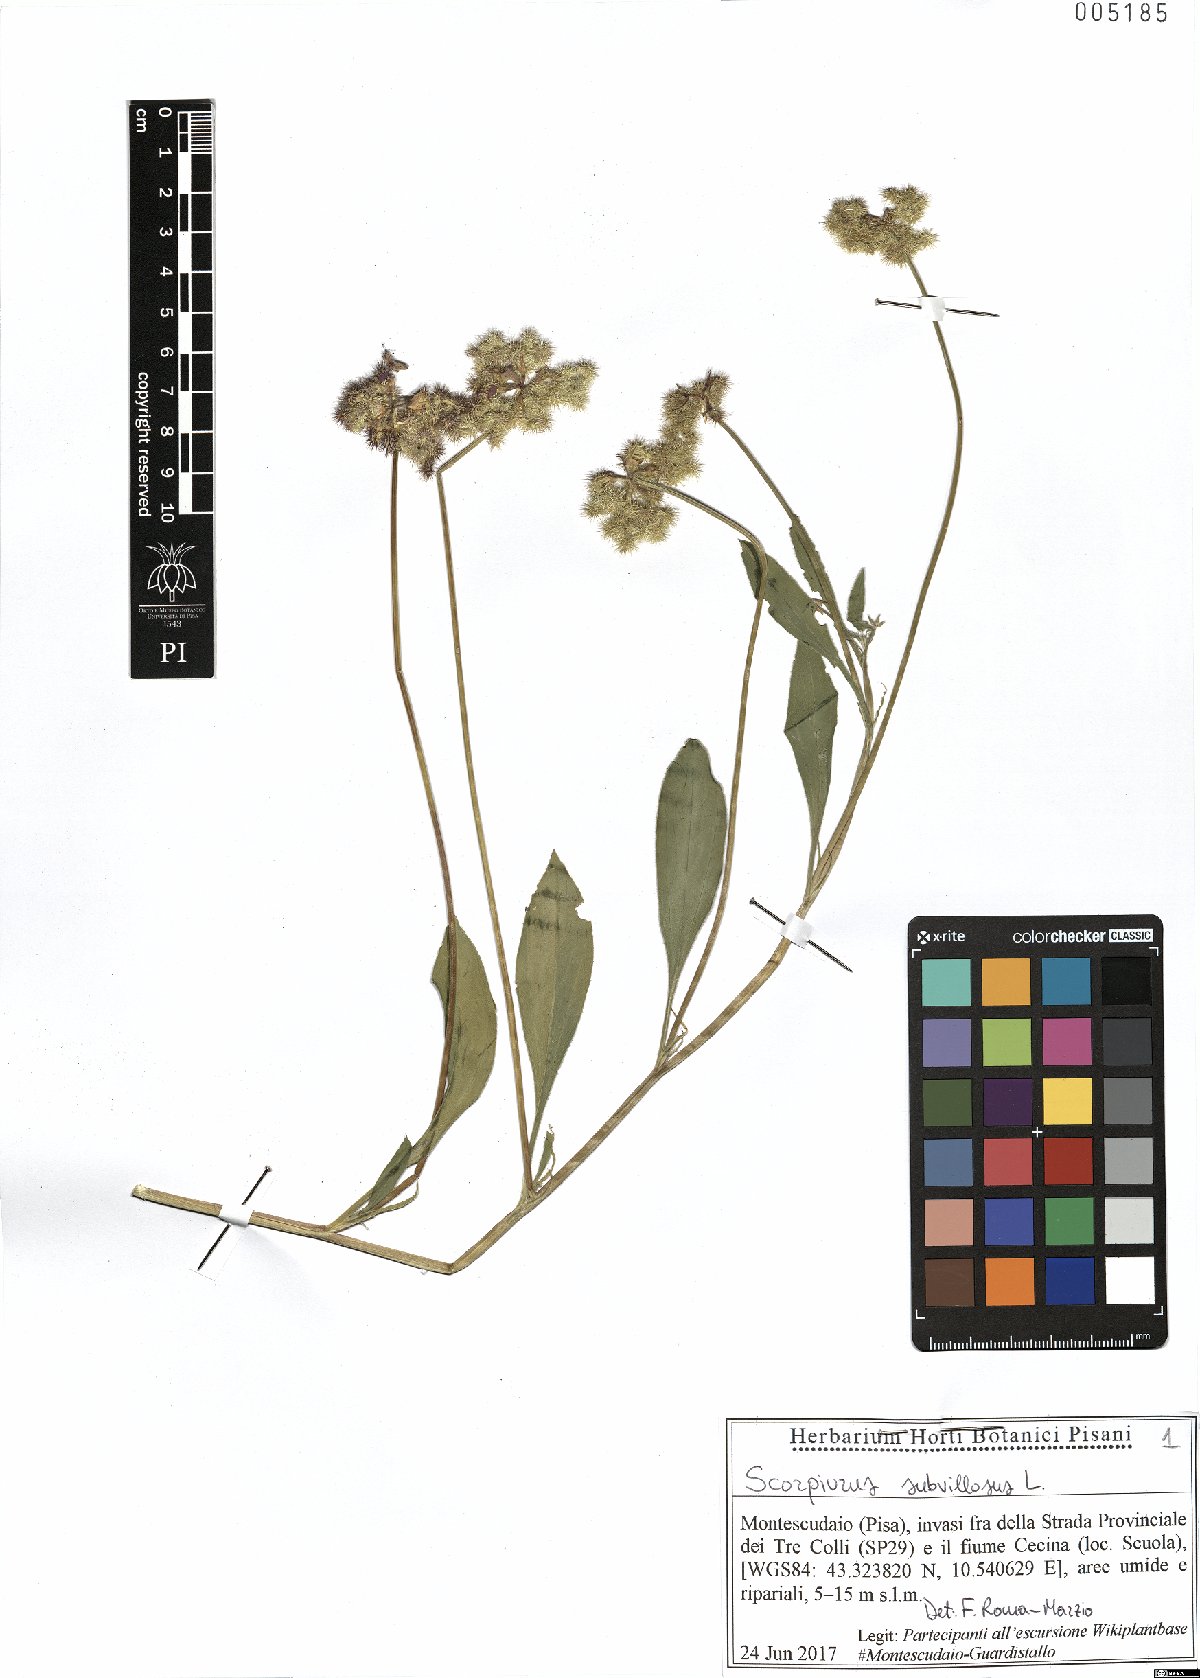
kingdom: Plantae
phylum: Tracheophyta
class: Magnoliopsida
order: Fabales
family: Fabaceae
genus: Scorpiurus
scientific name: Scorpiurus muricatus
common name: Caterpillar-plant
